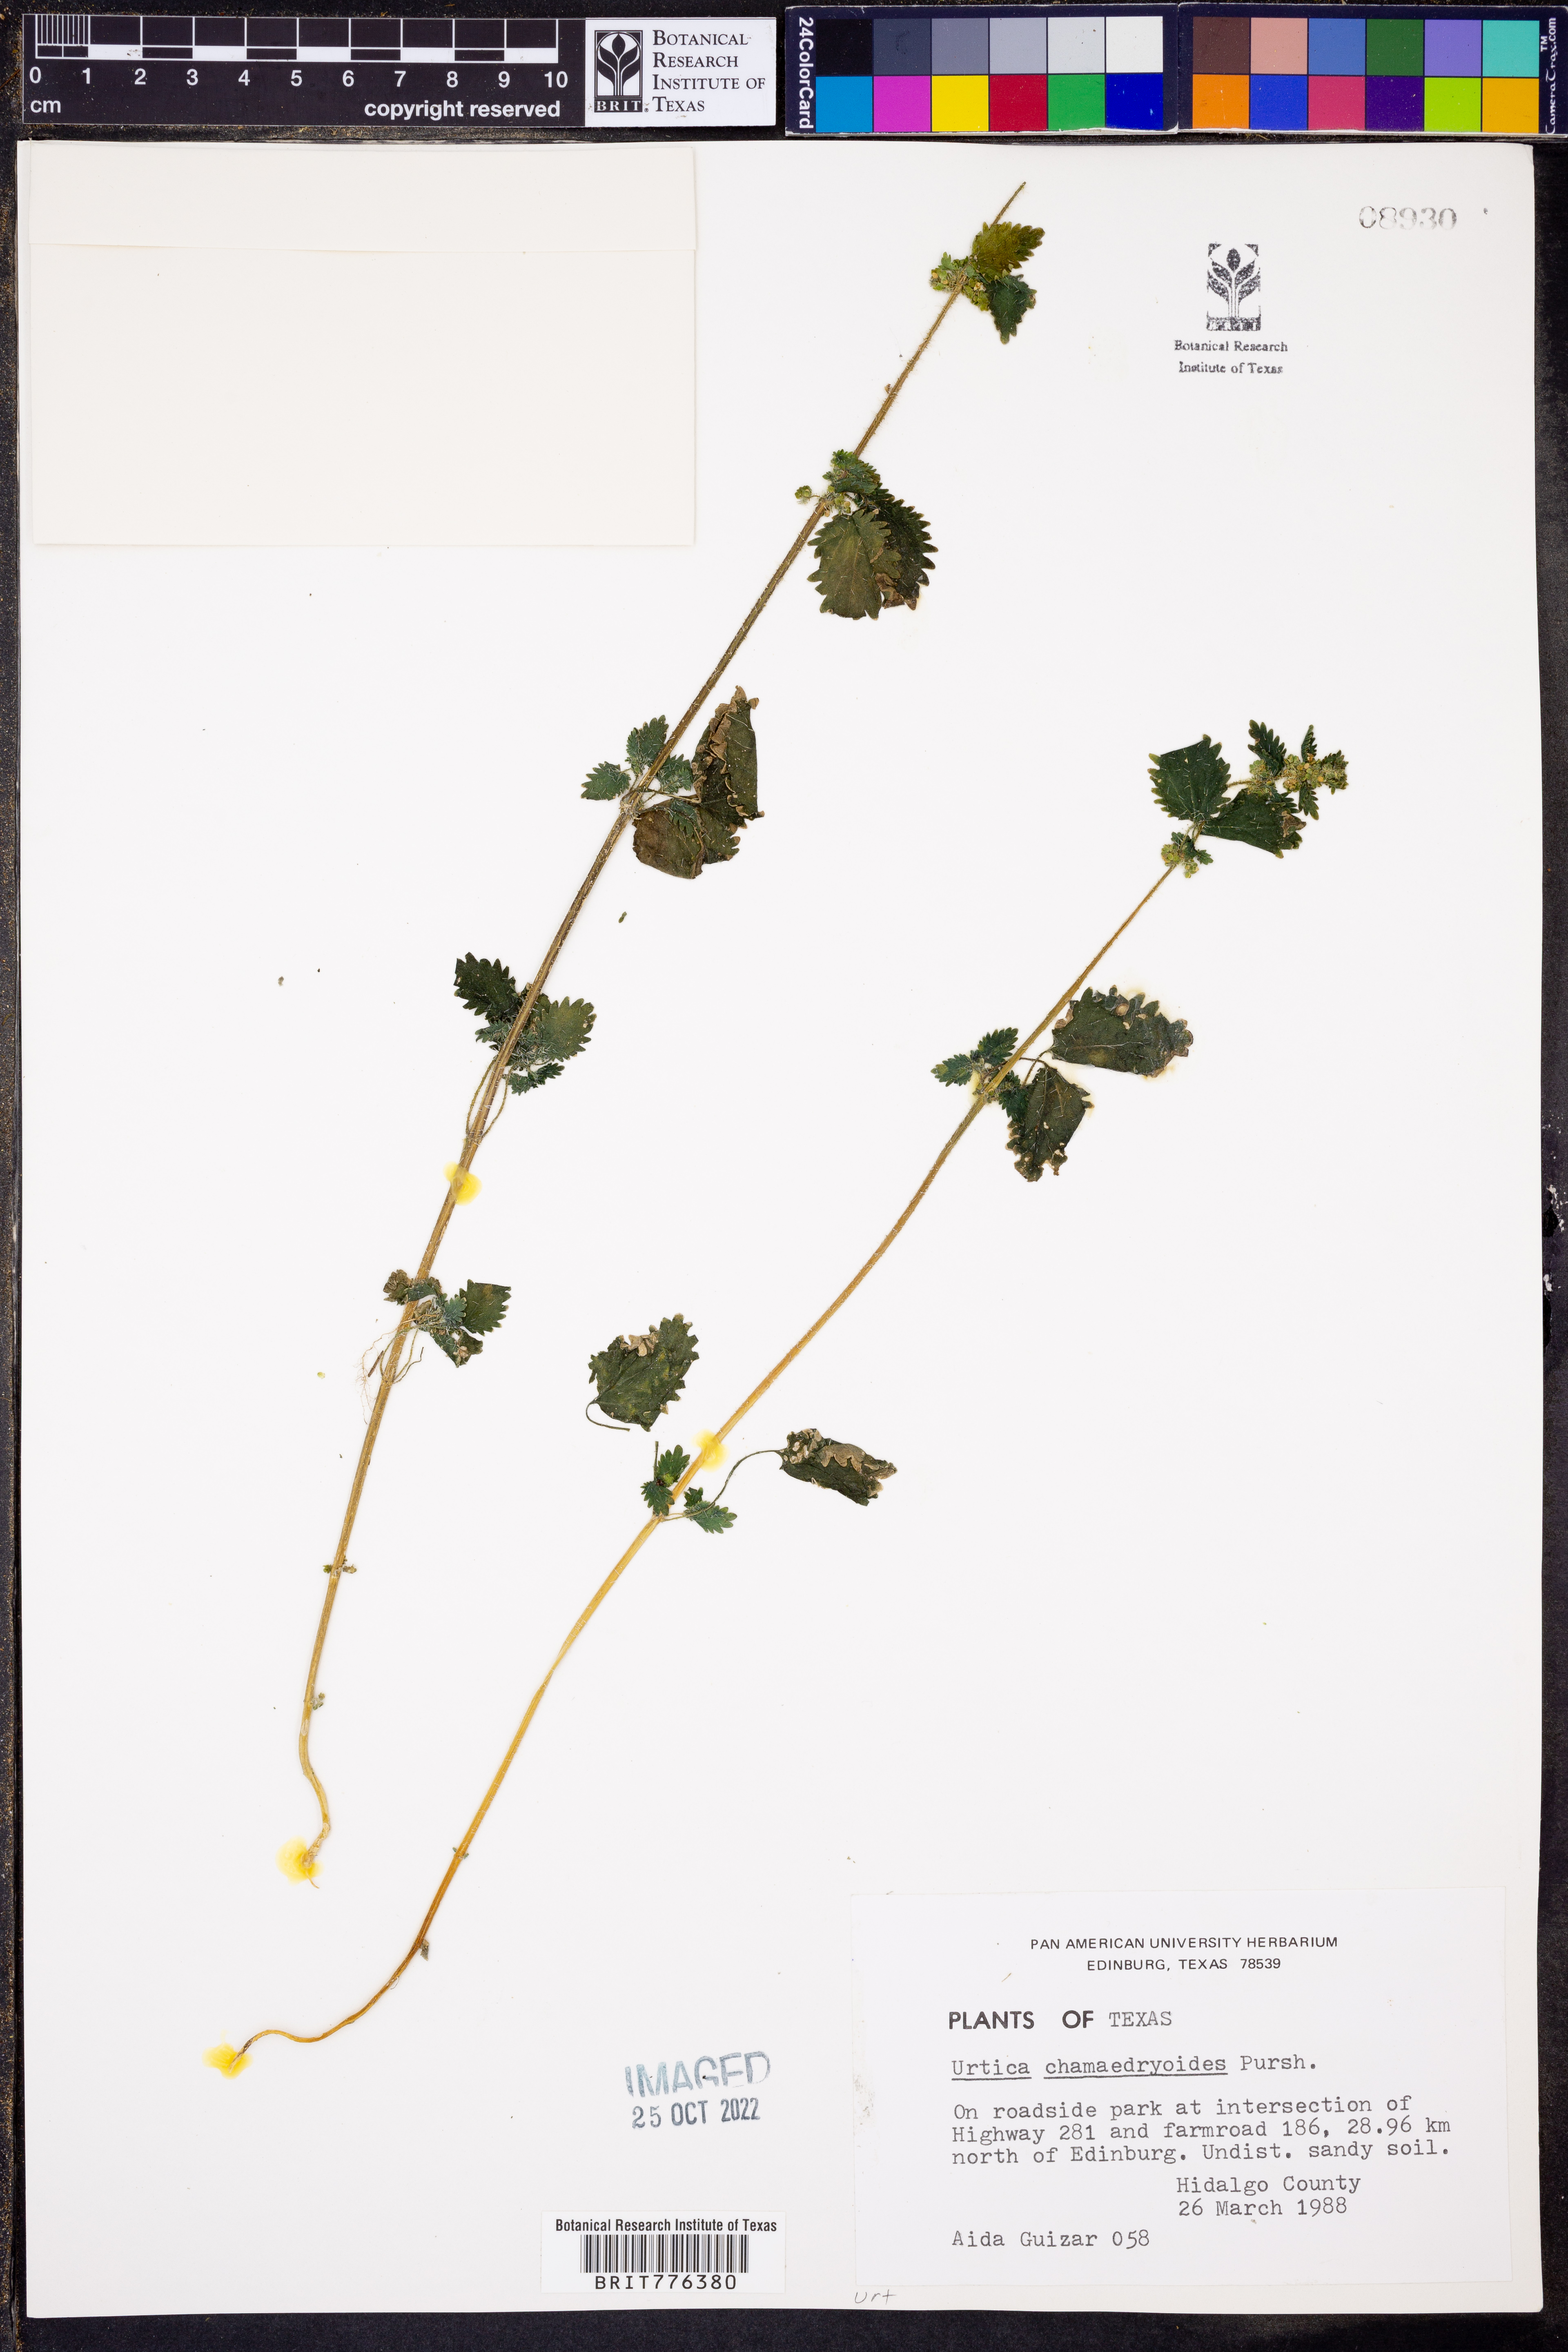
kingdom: Plantae
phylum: Tracheophyta
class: Magnoliopsida
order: Rosales
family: Urticaceae
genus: Urtica
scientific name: Urtica chamaedryoides
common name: Heart-leaf nettle
